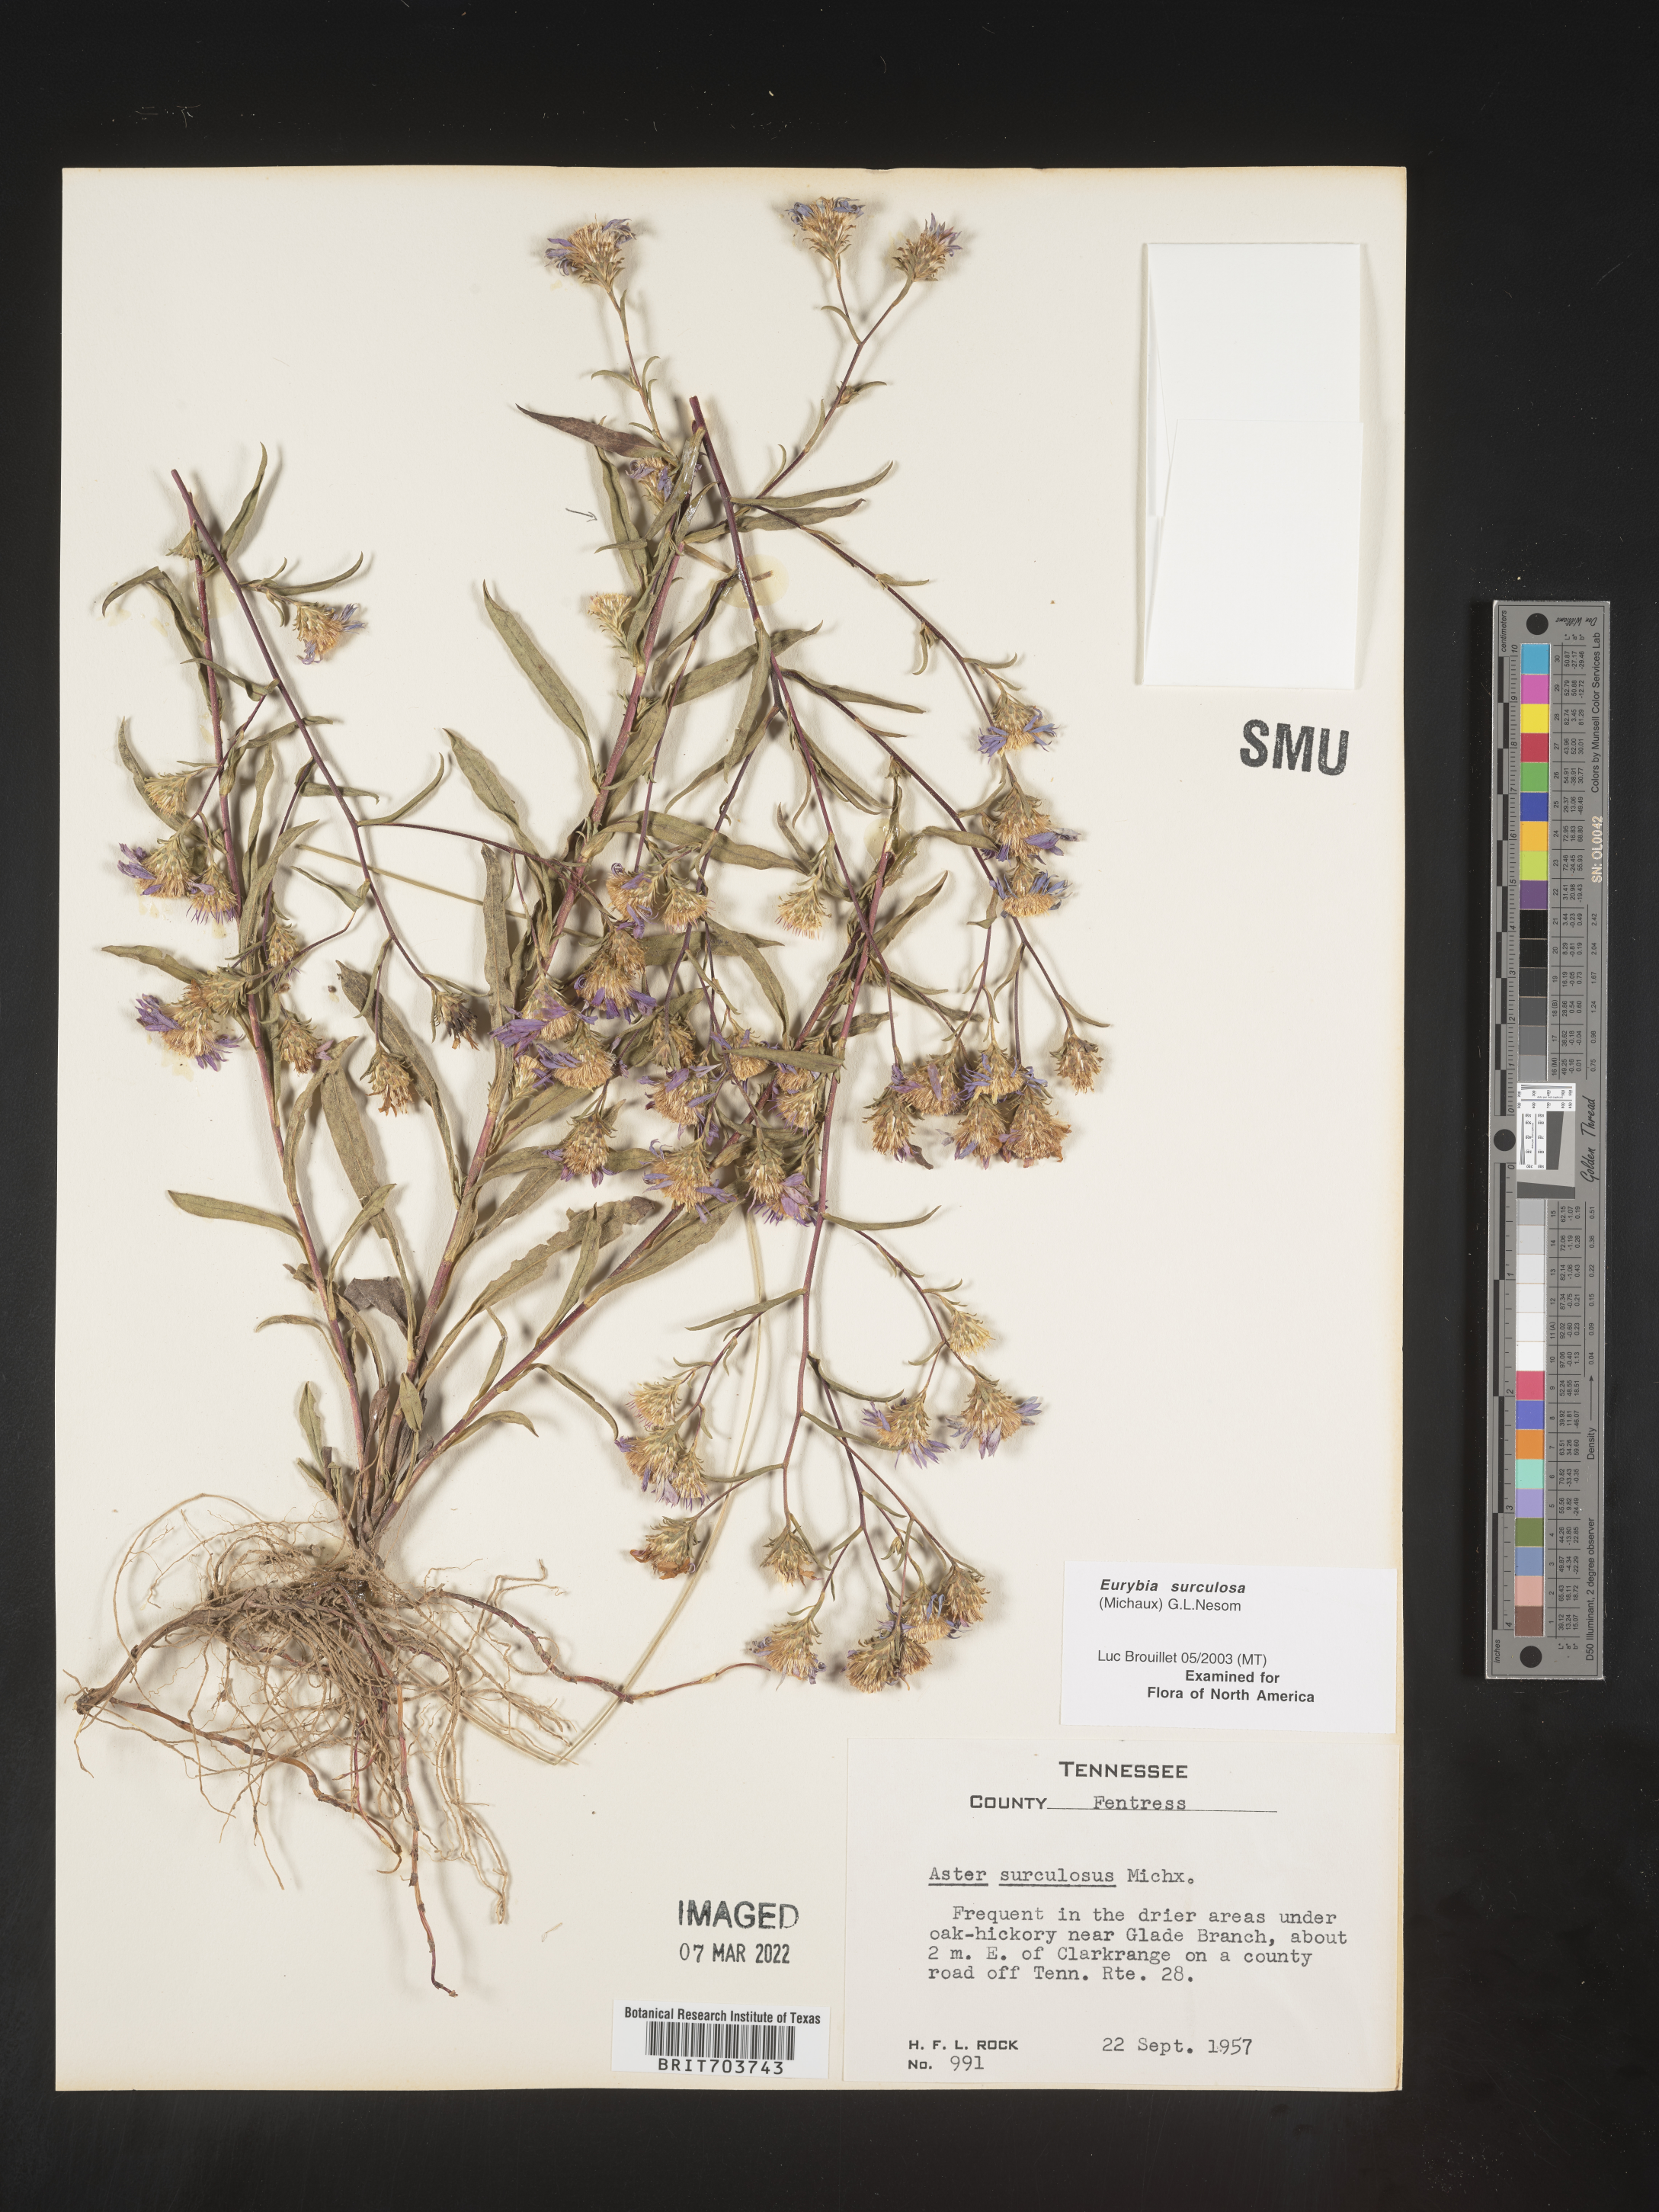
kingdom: Plantae
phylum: Tracheophyta
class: Magnoliopsida
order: Asterales
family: Asteraceae
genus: Eurybia
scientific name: Eurybia surculosa
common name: Creeping aster
